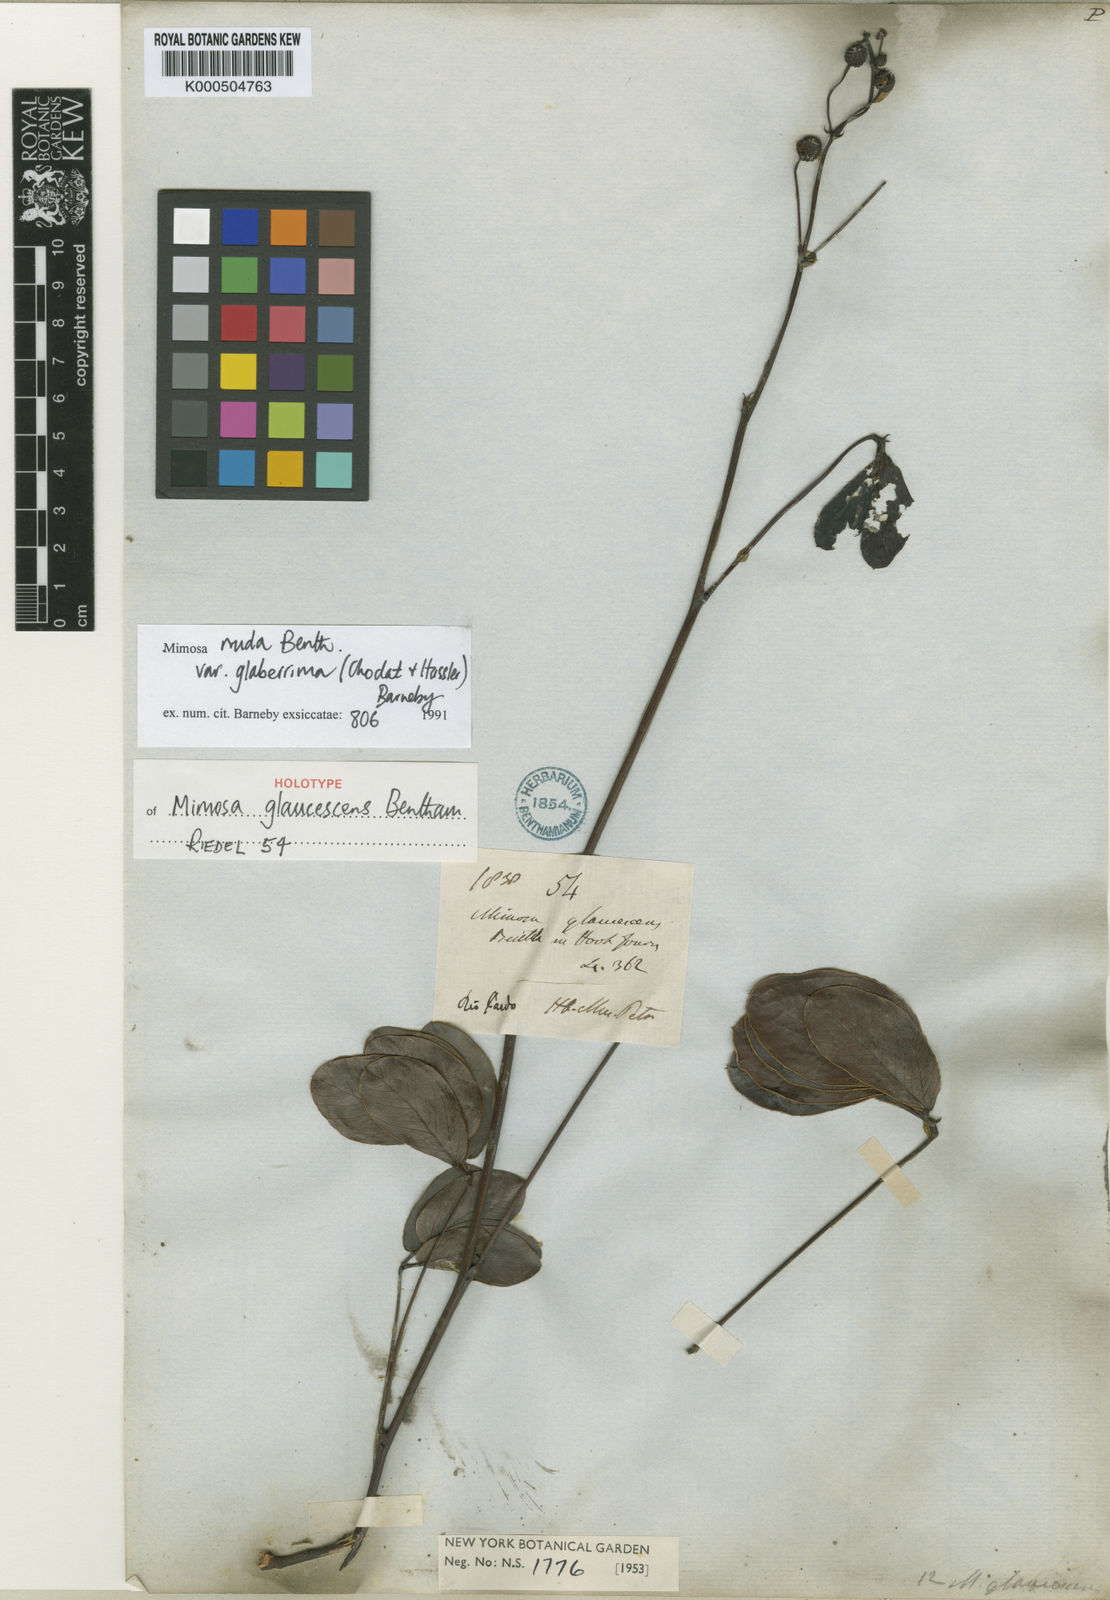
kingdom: Plantae
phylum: Tracheophyta
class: Magnoliopsida
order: Fabales
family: Fabaceae
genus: Mimosa
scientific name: Mimosa debilis
